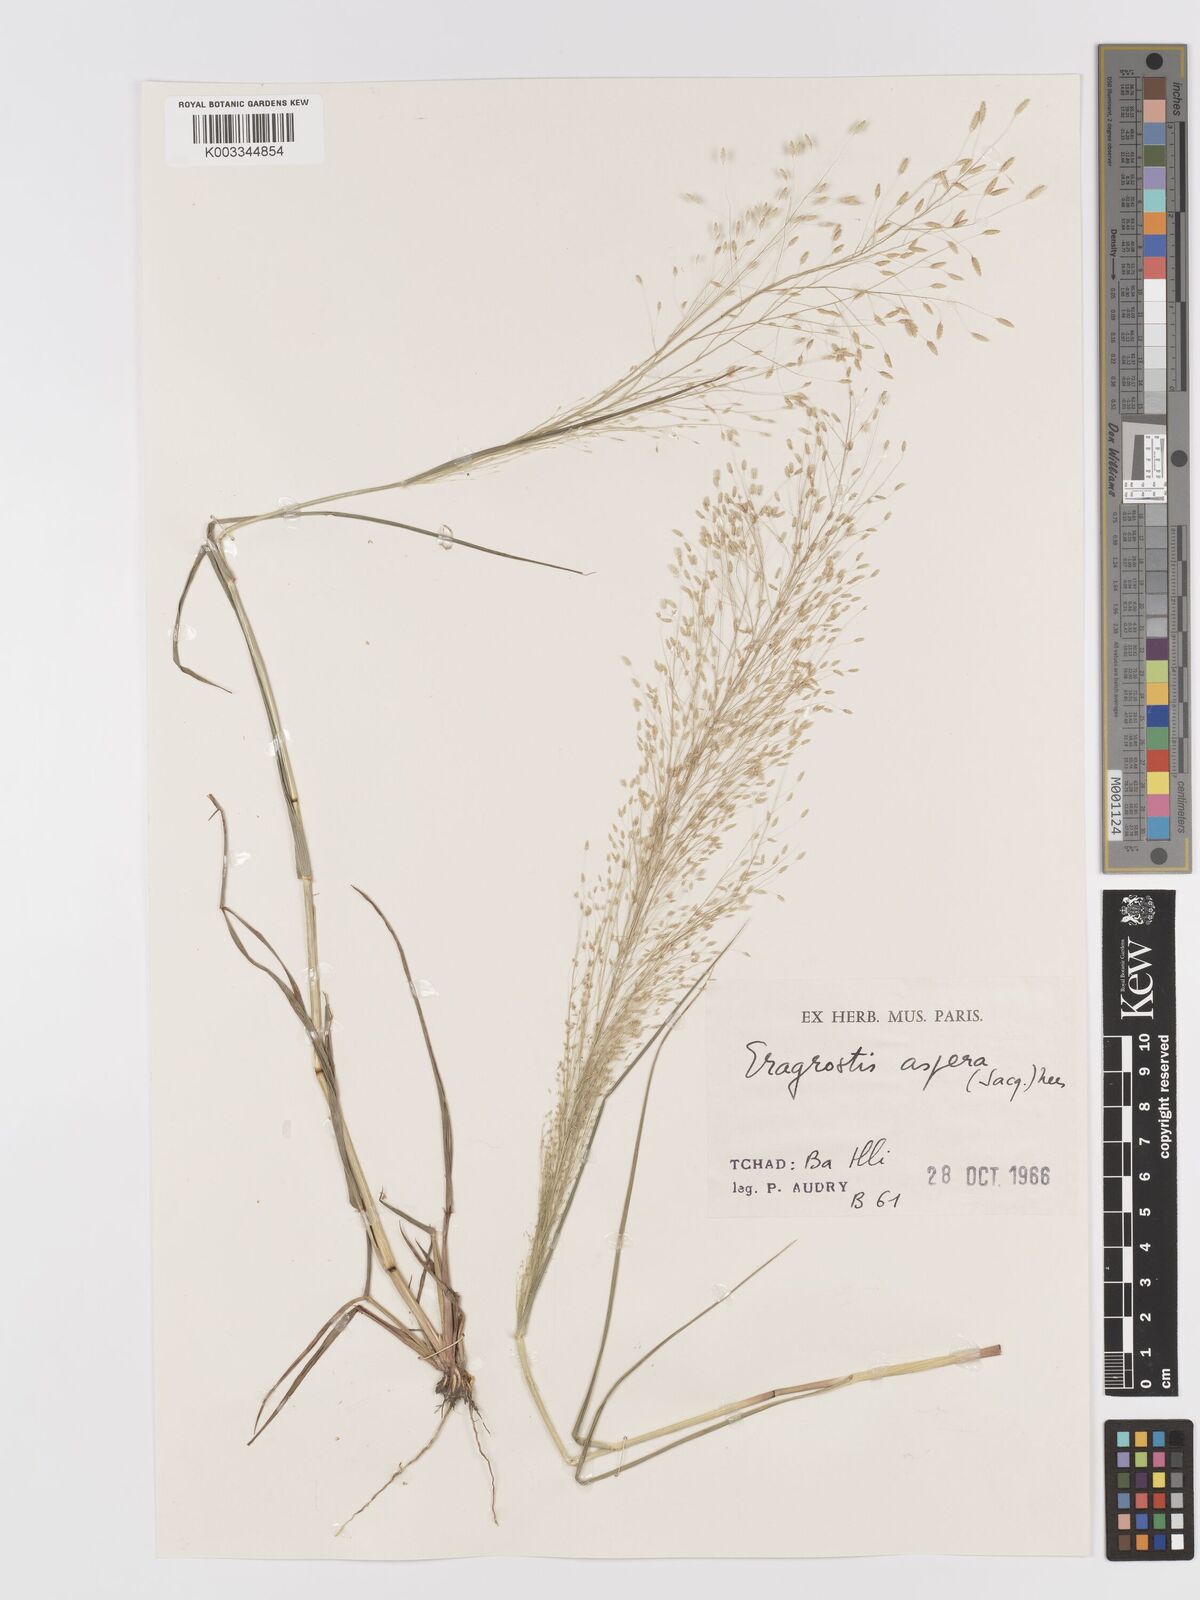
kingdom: Plantae
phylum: Tracheophyta
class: Liliopsida
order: Poales
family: Poaceae
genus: Eragrostis
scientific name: Eragrostis aspera
